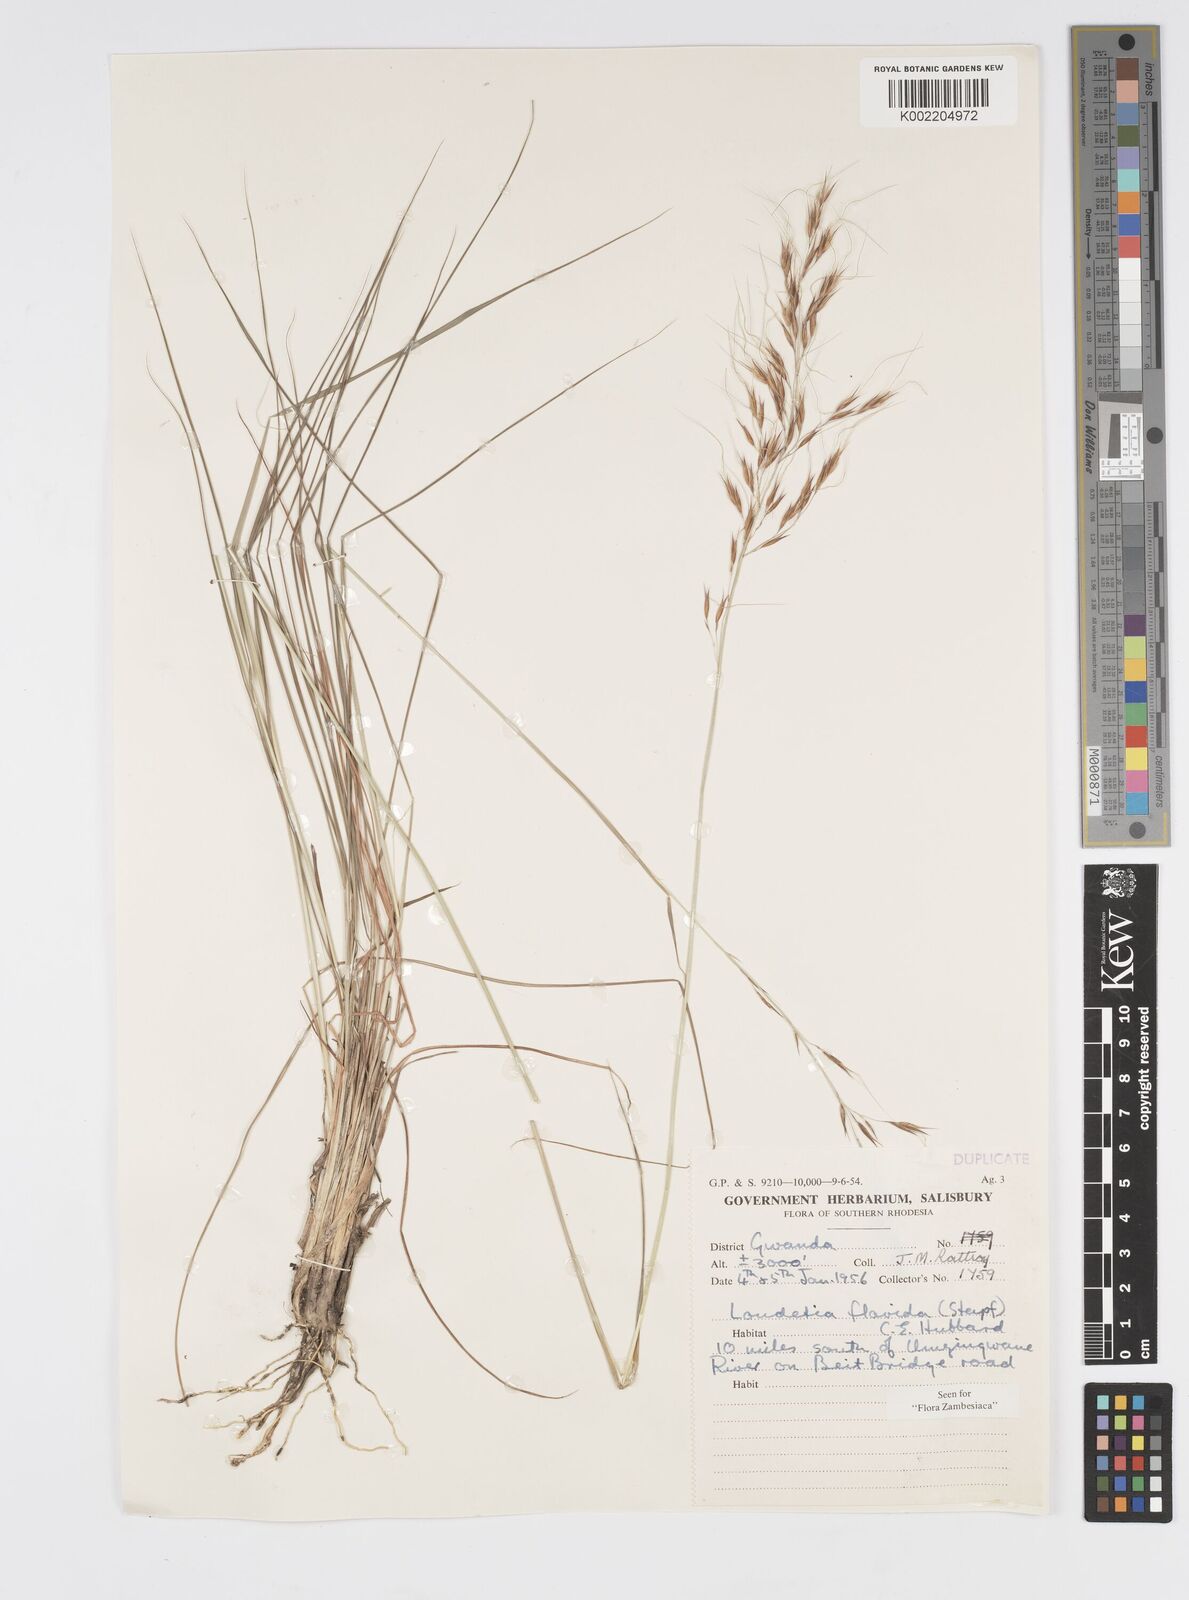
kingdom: Plantae
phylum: Tracheophyta
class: Liliopsida
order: Poales
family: Poaceae
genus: Loudetia
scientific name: Loudetia flavida
